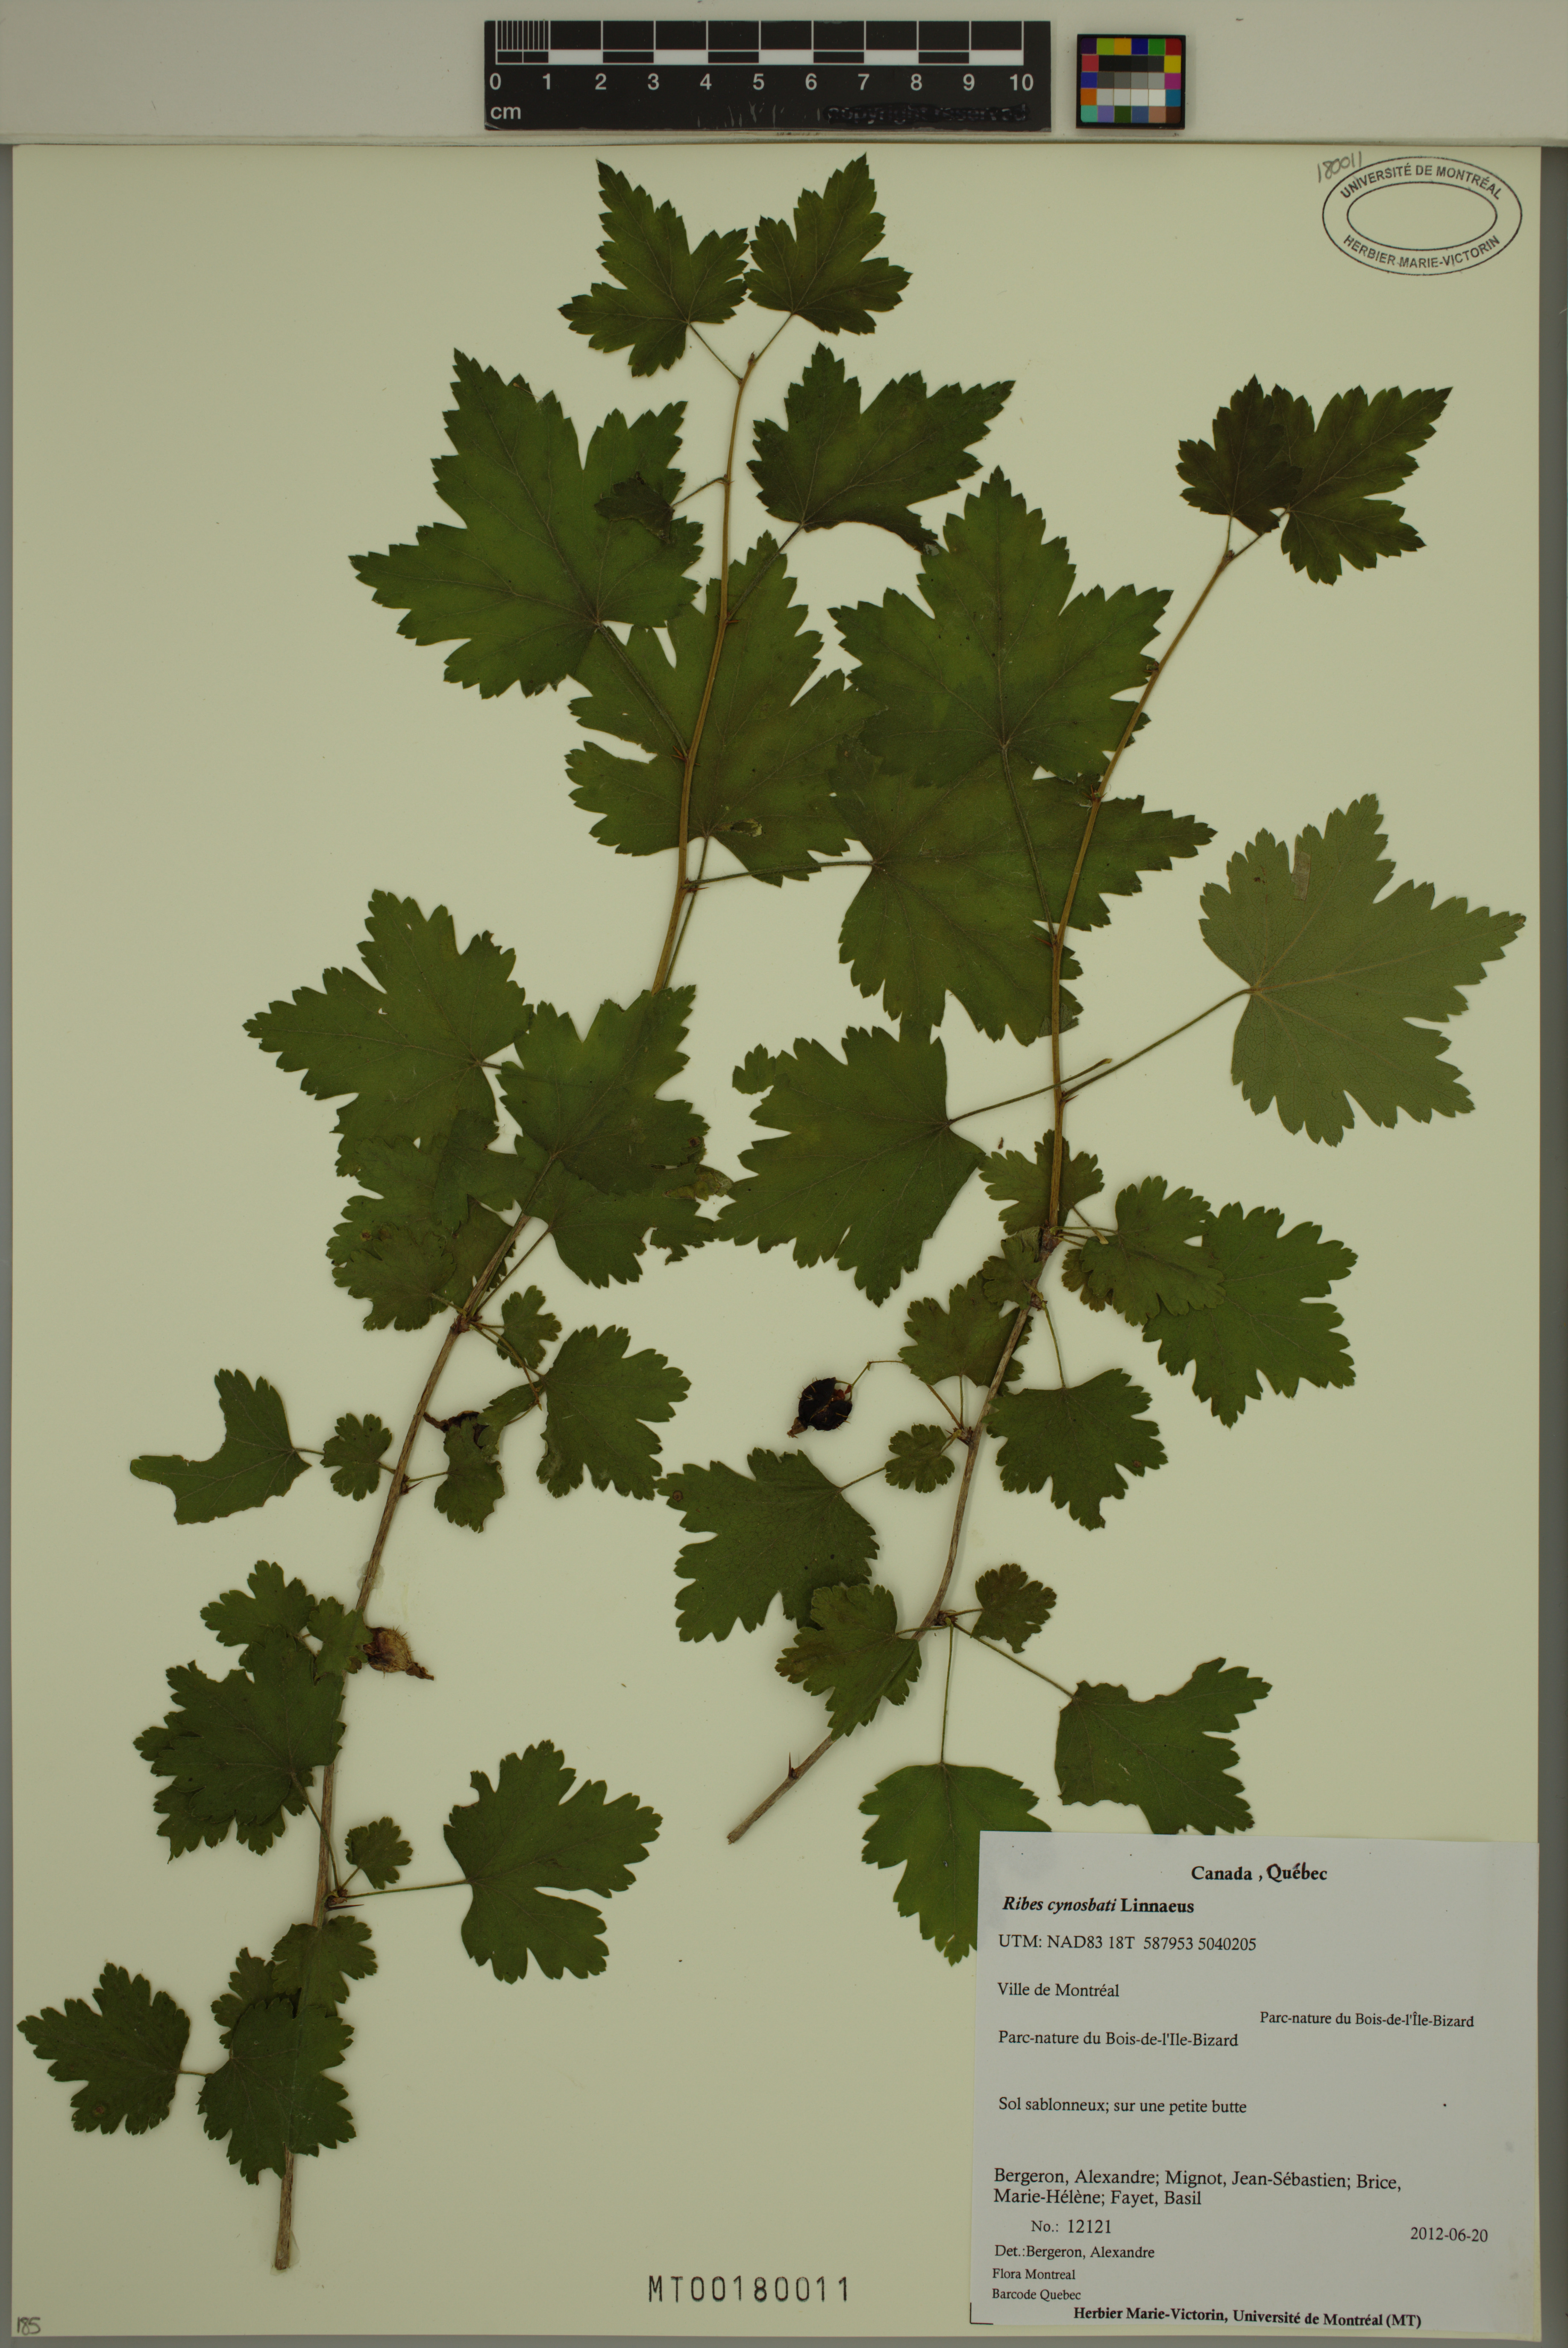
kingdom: Plantae
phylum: Tracheophyta
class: Magnoliopsida
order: Saxifragales
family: Grossulariaceae
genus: Ribes
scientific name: Ribes cynosbati
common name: American gooseberry
